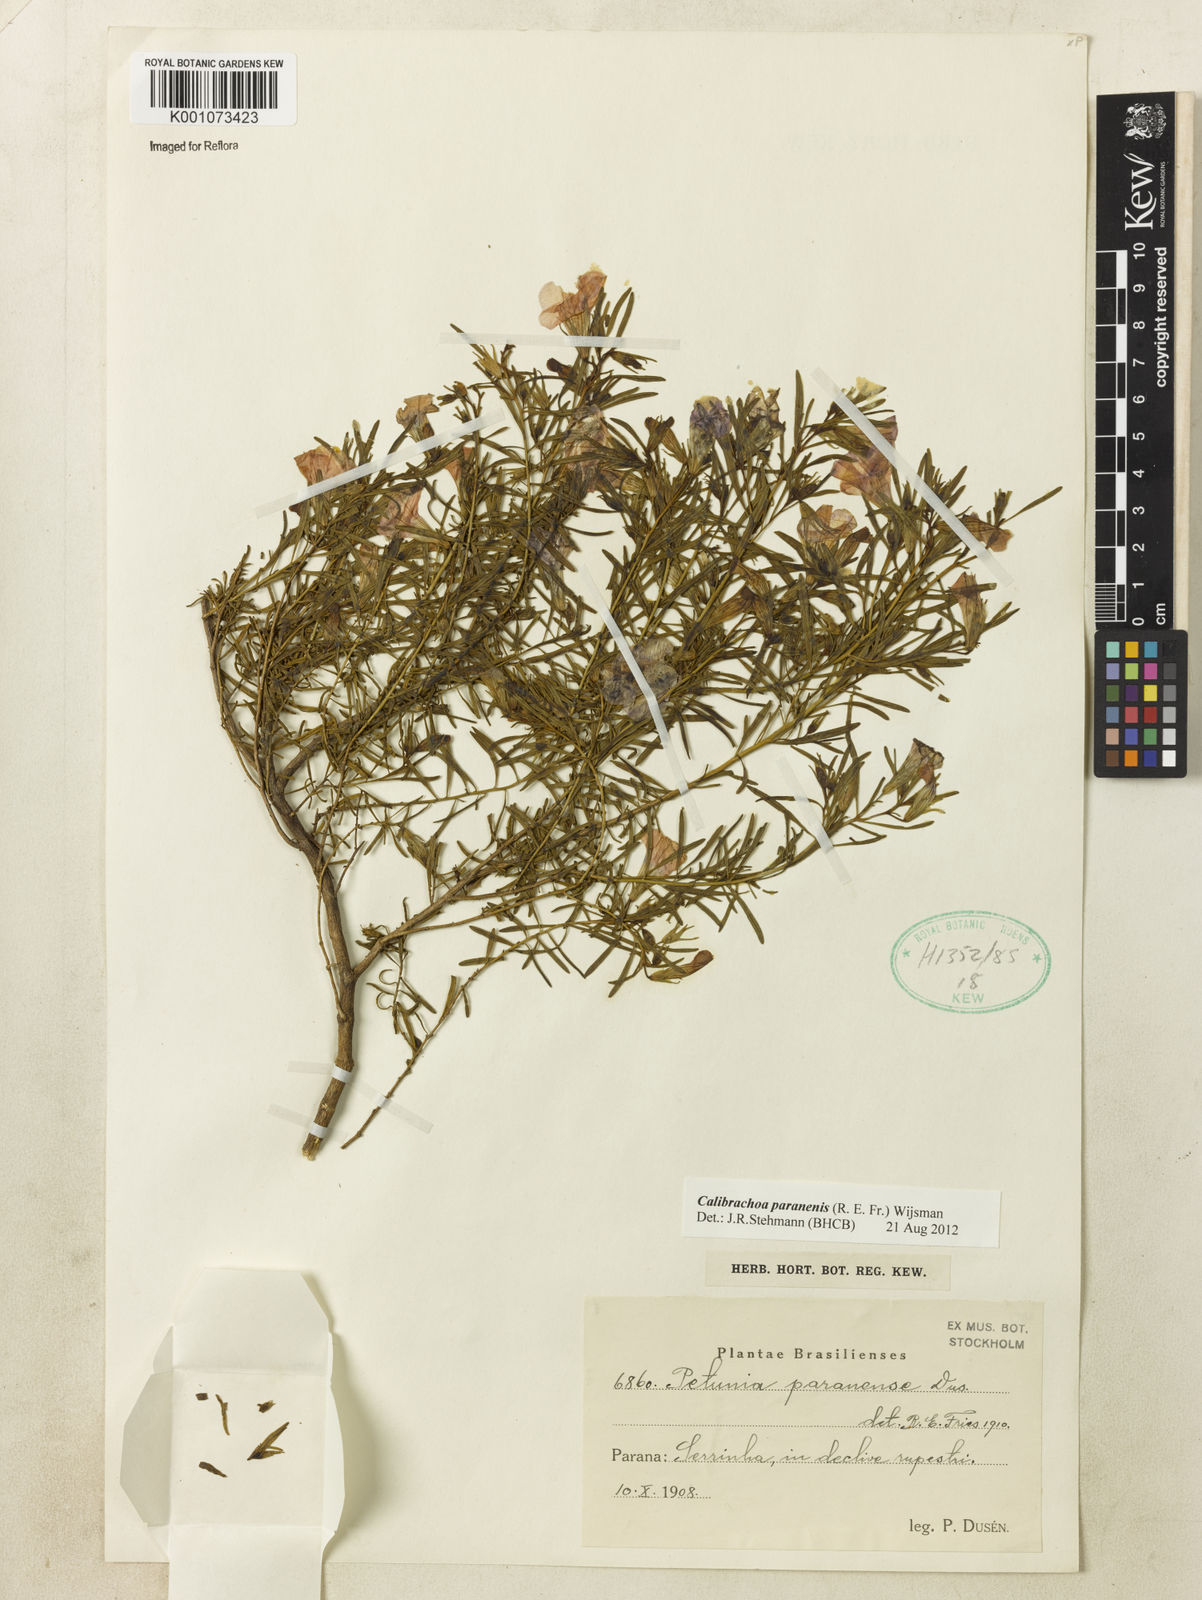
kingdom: Plantae
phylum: Tracheophyta
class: Magnoliopsida
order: Solanales
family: Solanaceae
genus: Calibrachoa
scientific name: Calibrachoa
